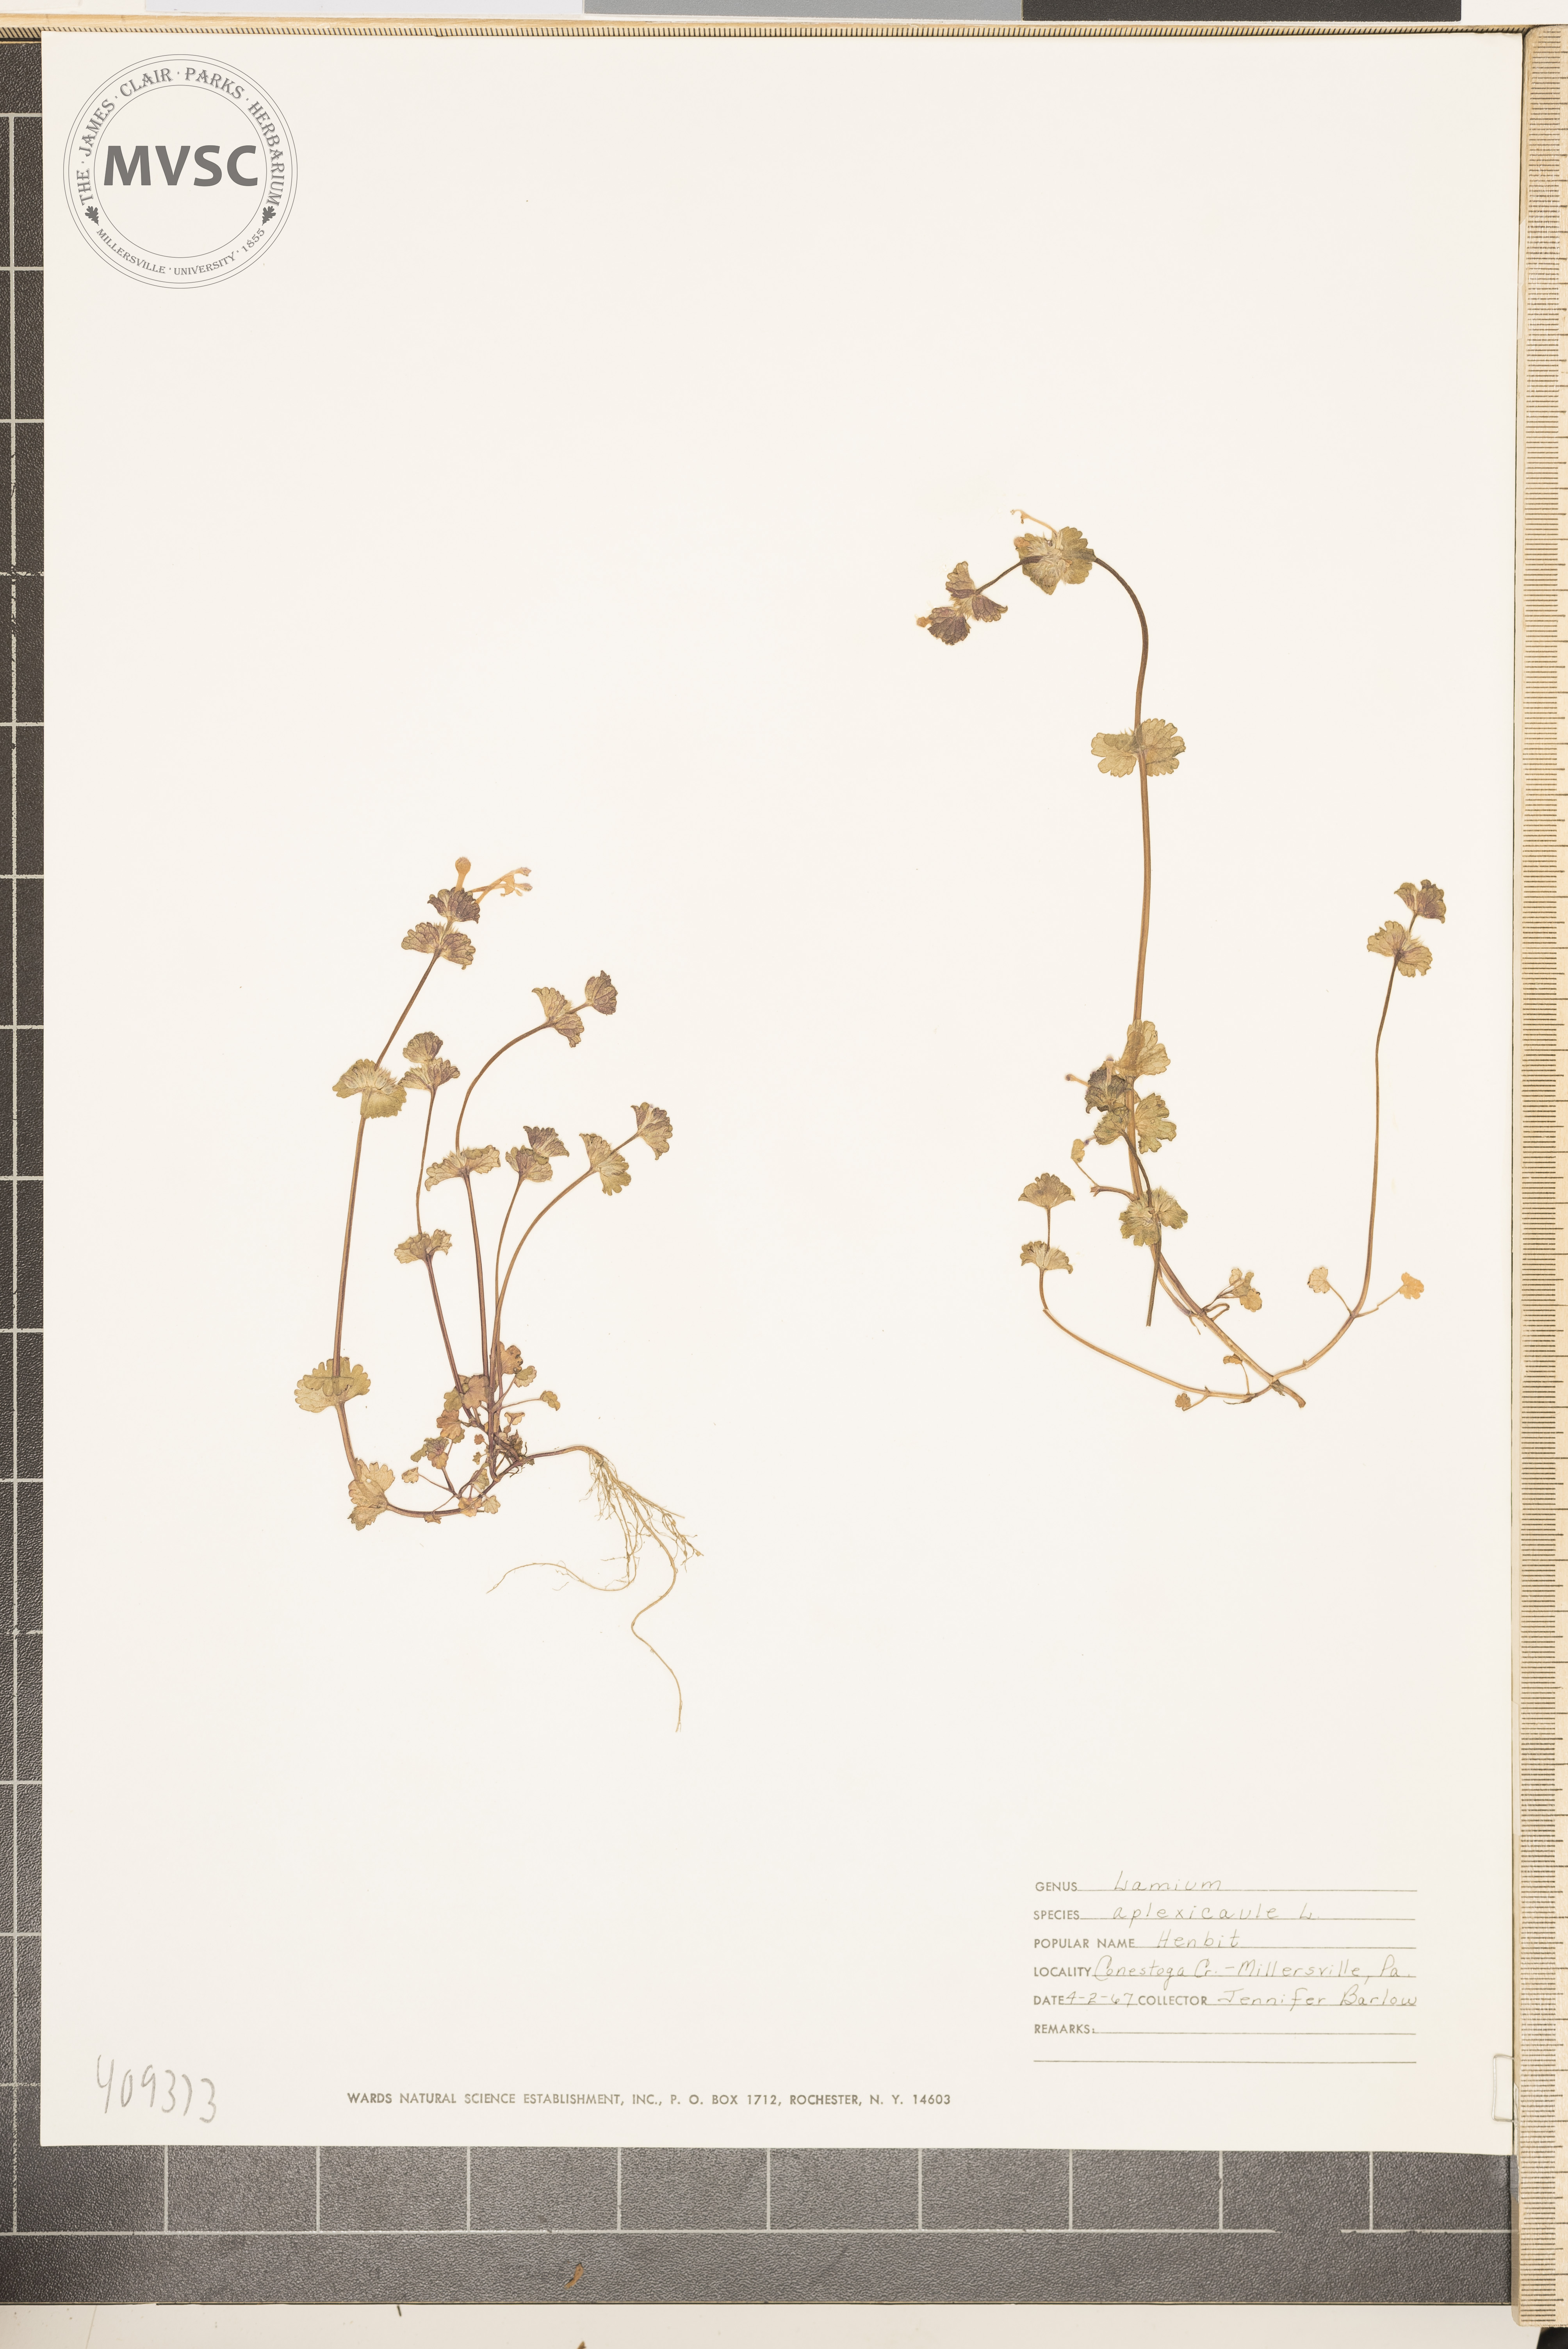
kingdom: Plantae
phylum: Tracheophyta
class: Magnoliopsida
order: Lamiales
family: Lamiaceae
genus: Lamium
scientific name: Lamium amplexicaule
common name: henbit
